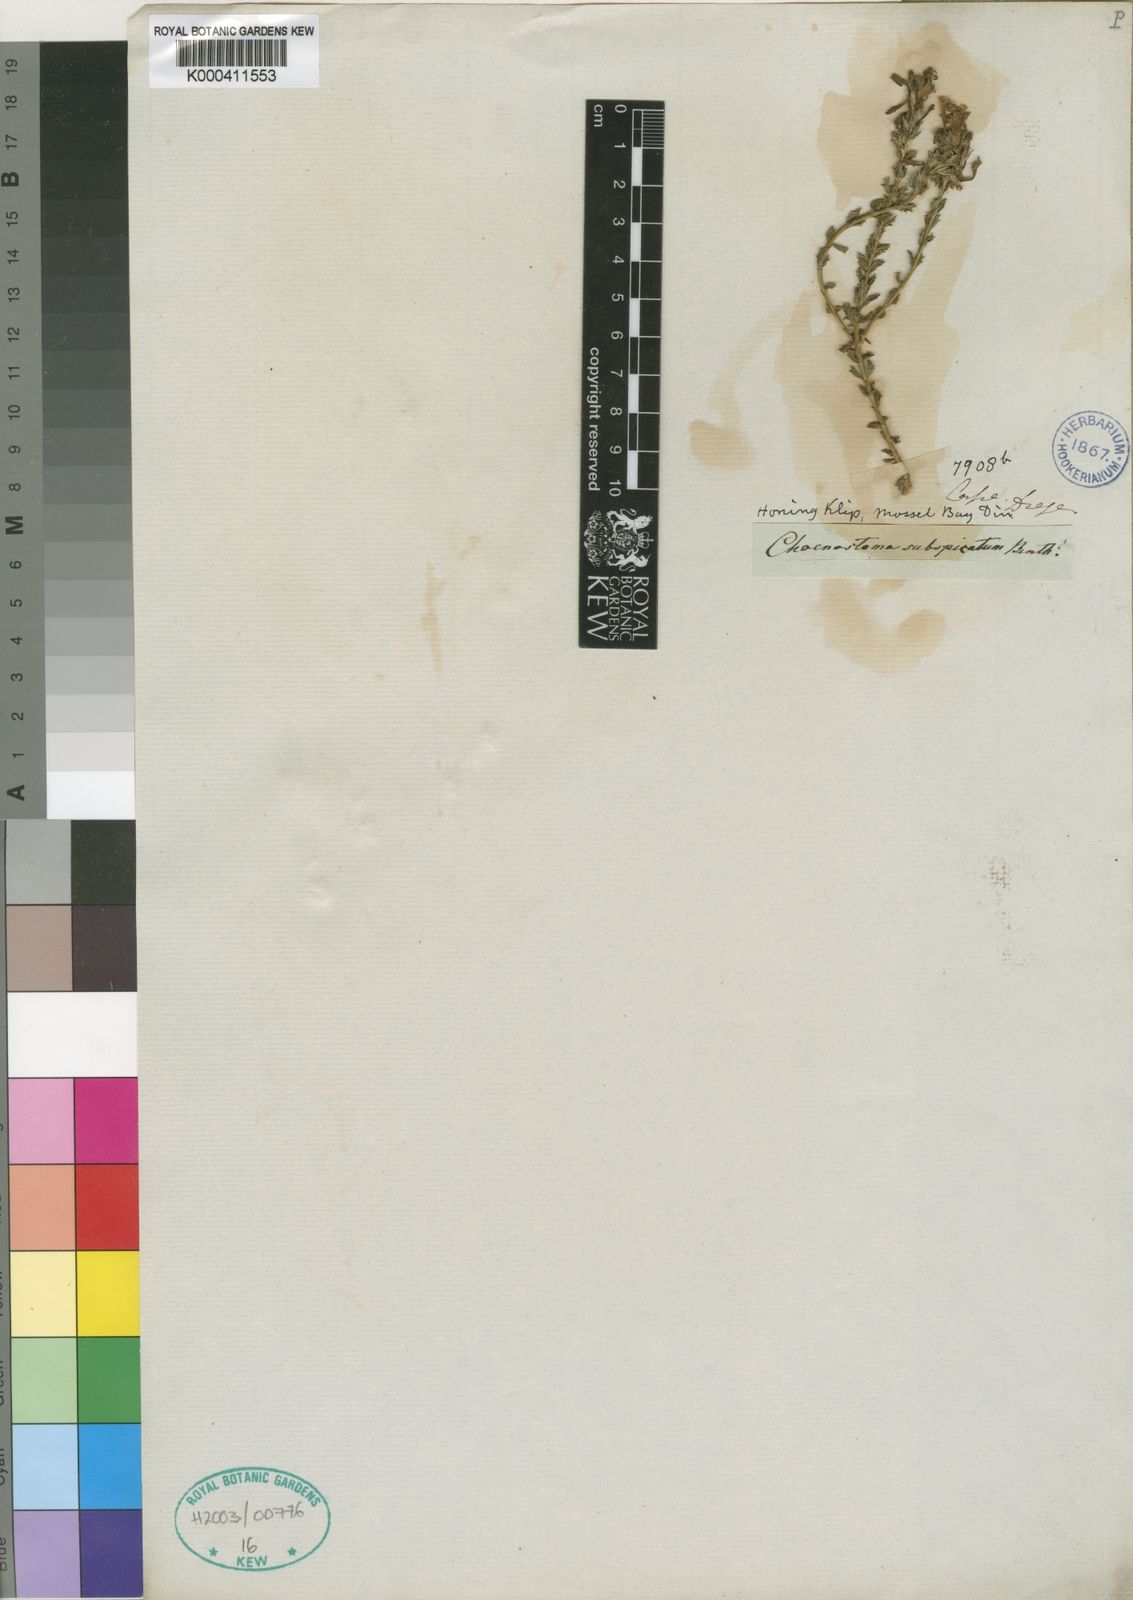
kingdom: Plantae
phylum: Tracheophyta
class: Magnoliopsida
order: Lamiales
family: Scrophulariaceae
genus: Chaenostoma
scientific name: Chaenostoma subspicata
